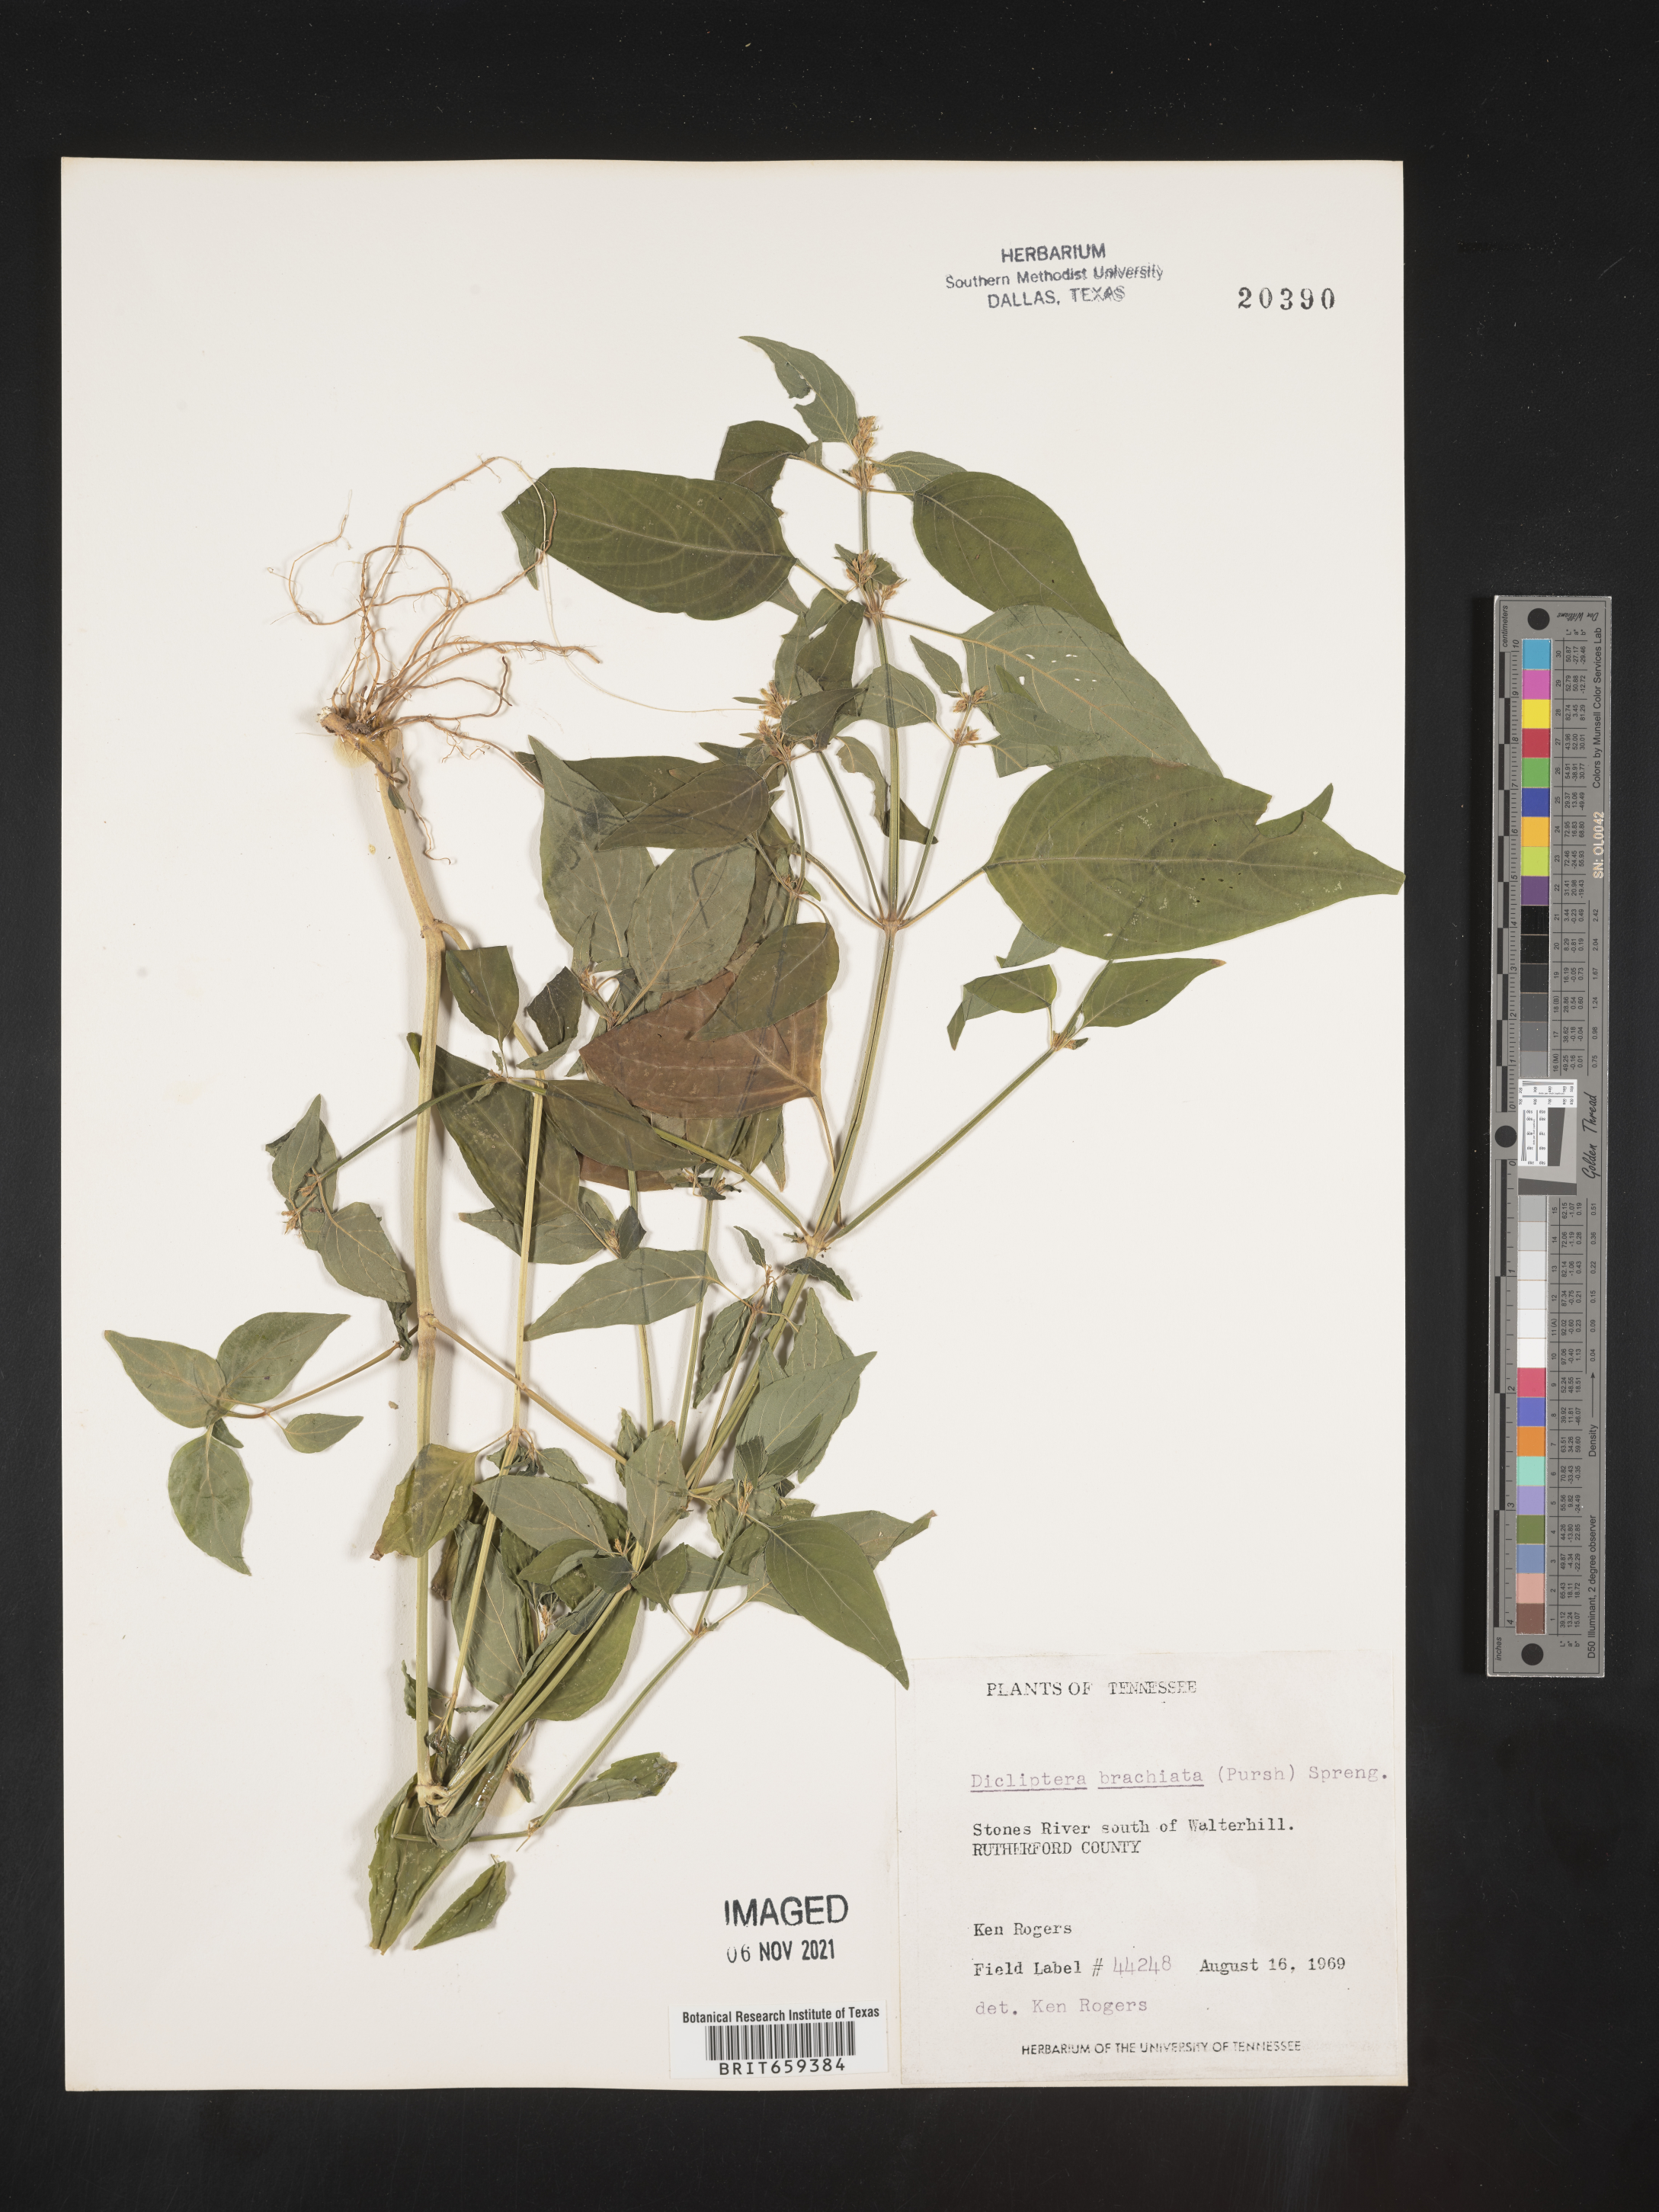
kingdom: Plantae
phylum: Tracheophyta
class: Magnoliopsida
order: Lamiales
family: Acanthaceae
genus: Dicliptera
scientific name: Dicliptera brachiata
